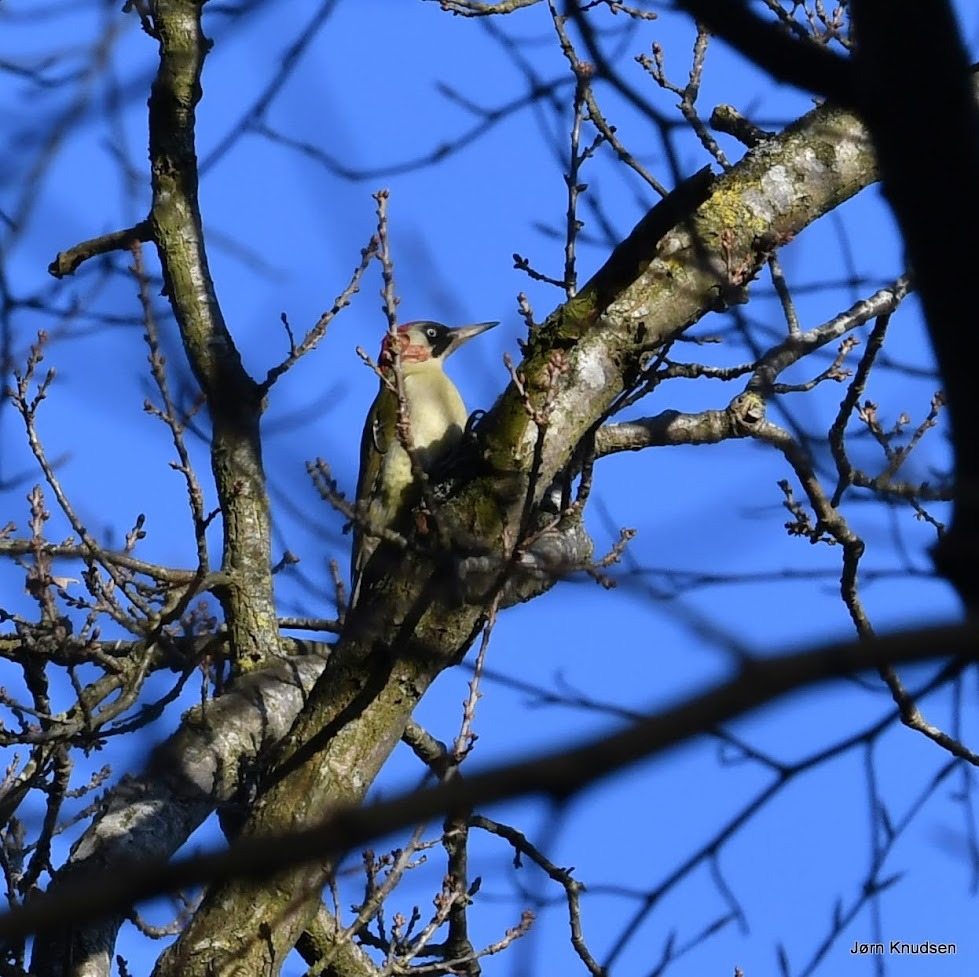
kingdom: Animalia
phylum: Chordata
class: Aves
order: Piciformes
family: Picidae
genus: Picus
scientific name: Picus viridis
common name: Grønspætte
